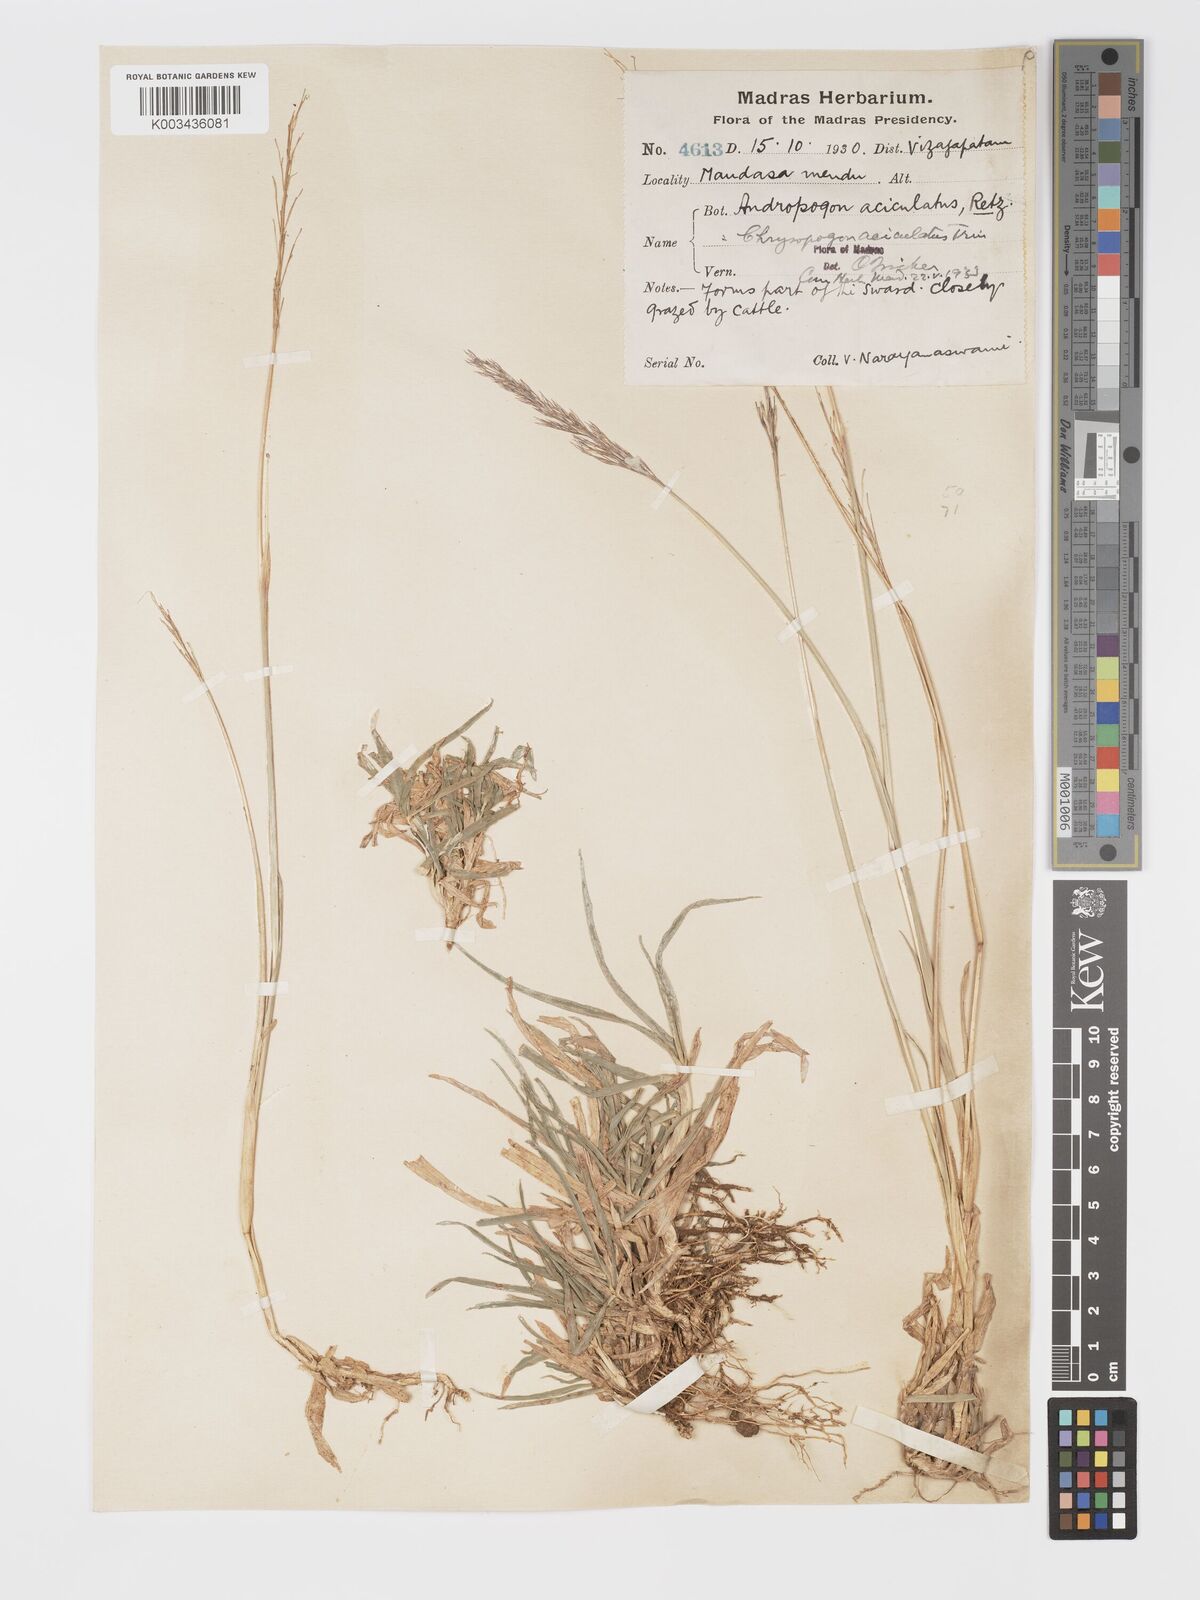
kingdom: Plantae
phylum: Tracheophyta
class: Liliopsida
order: Poales
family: Poaceae
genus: Chrysopogon
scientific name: Chrysopogon aciculatus
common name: Pilipiliula
